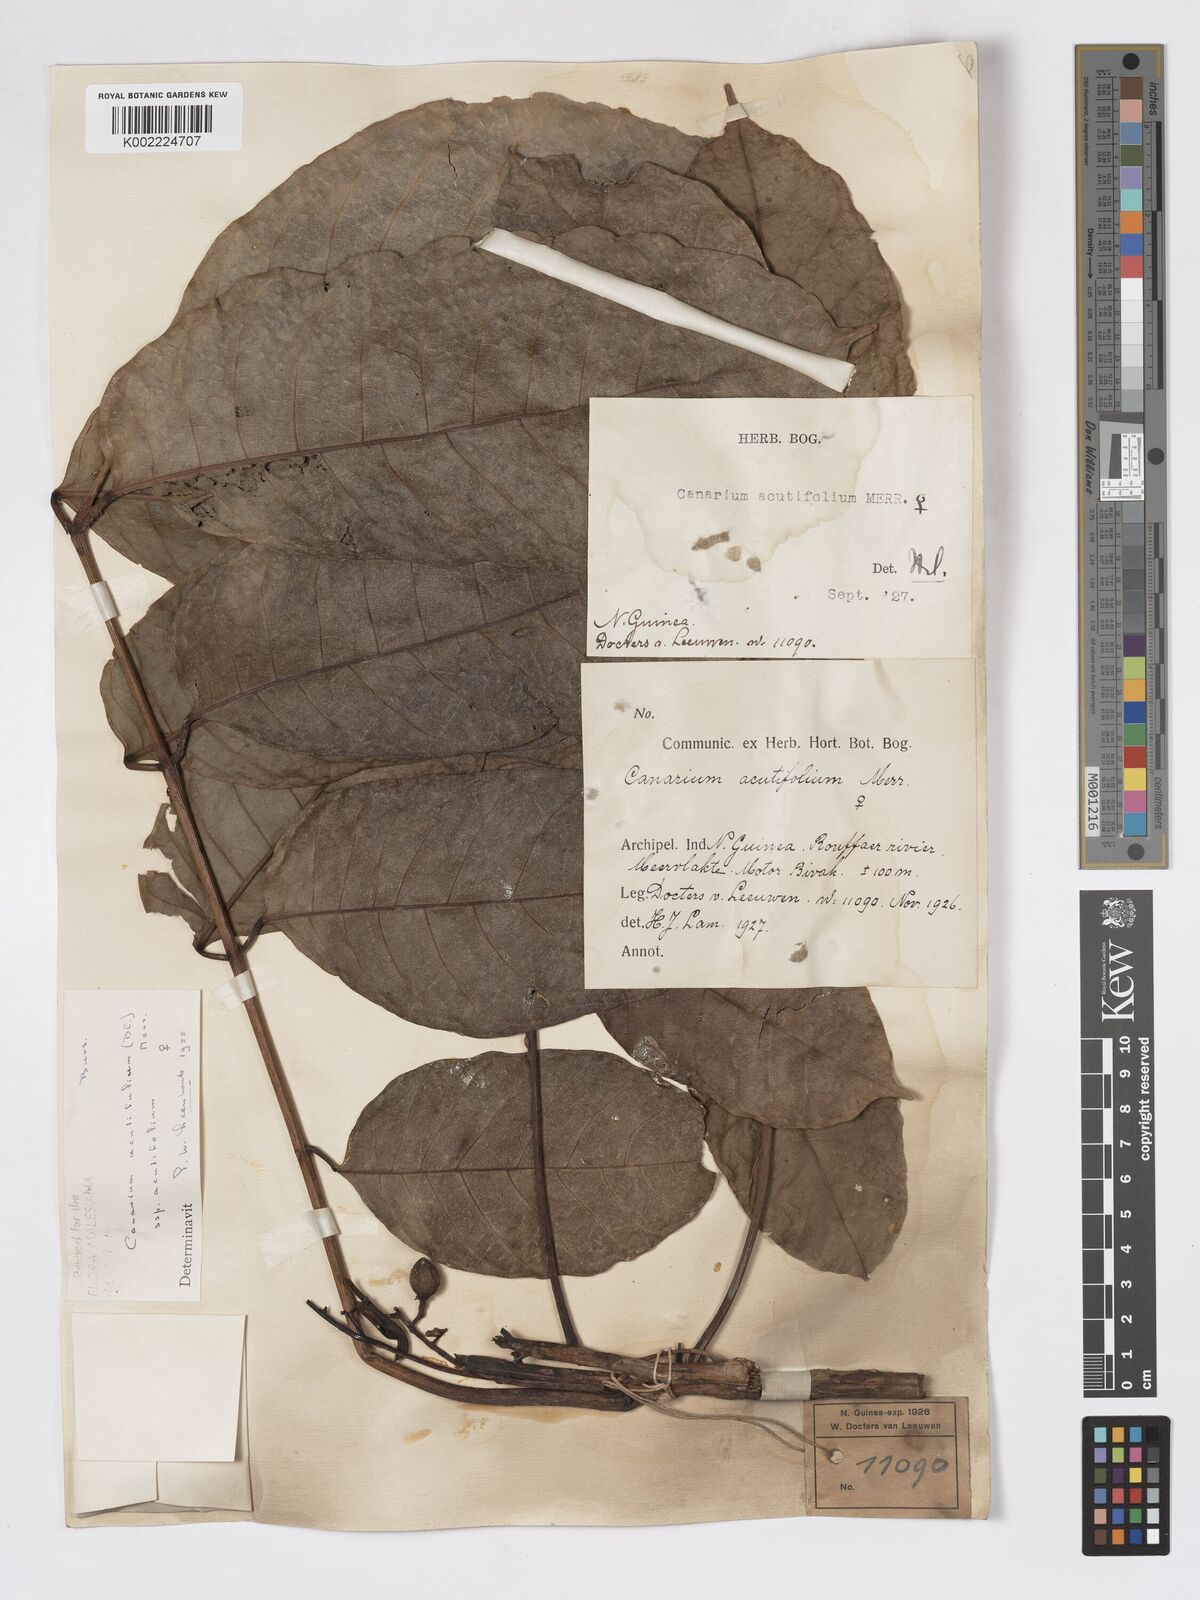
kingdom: Plantae
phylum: Tracheophyta
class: Magnoliopsida
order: Sapindales
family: Burseraceae
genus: Canarium
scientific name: Canarium acutifolium
